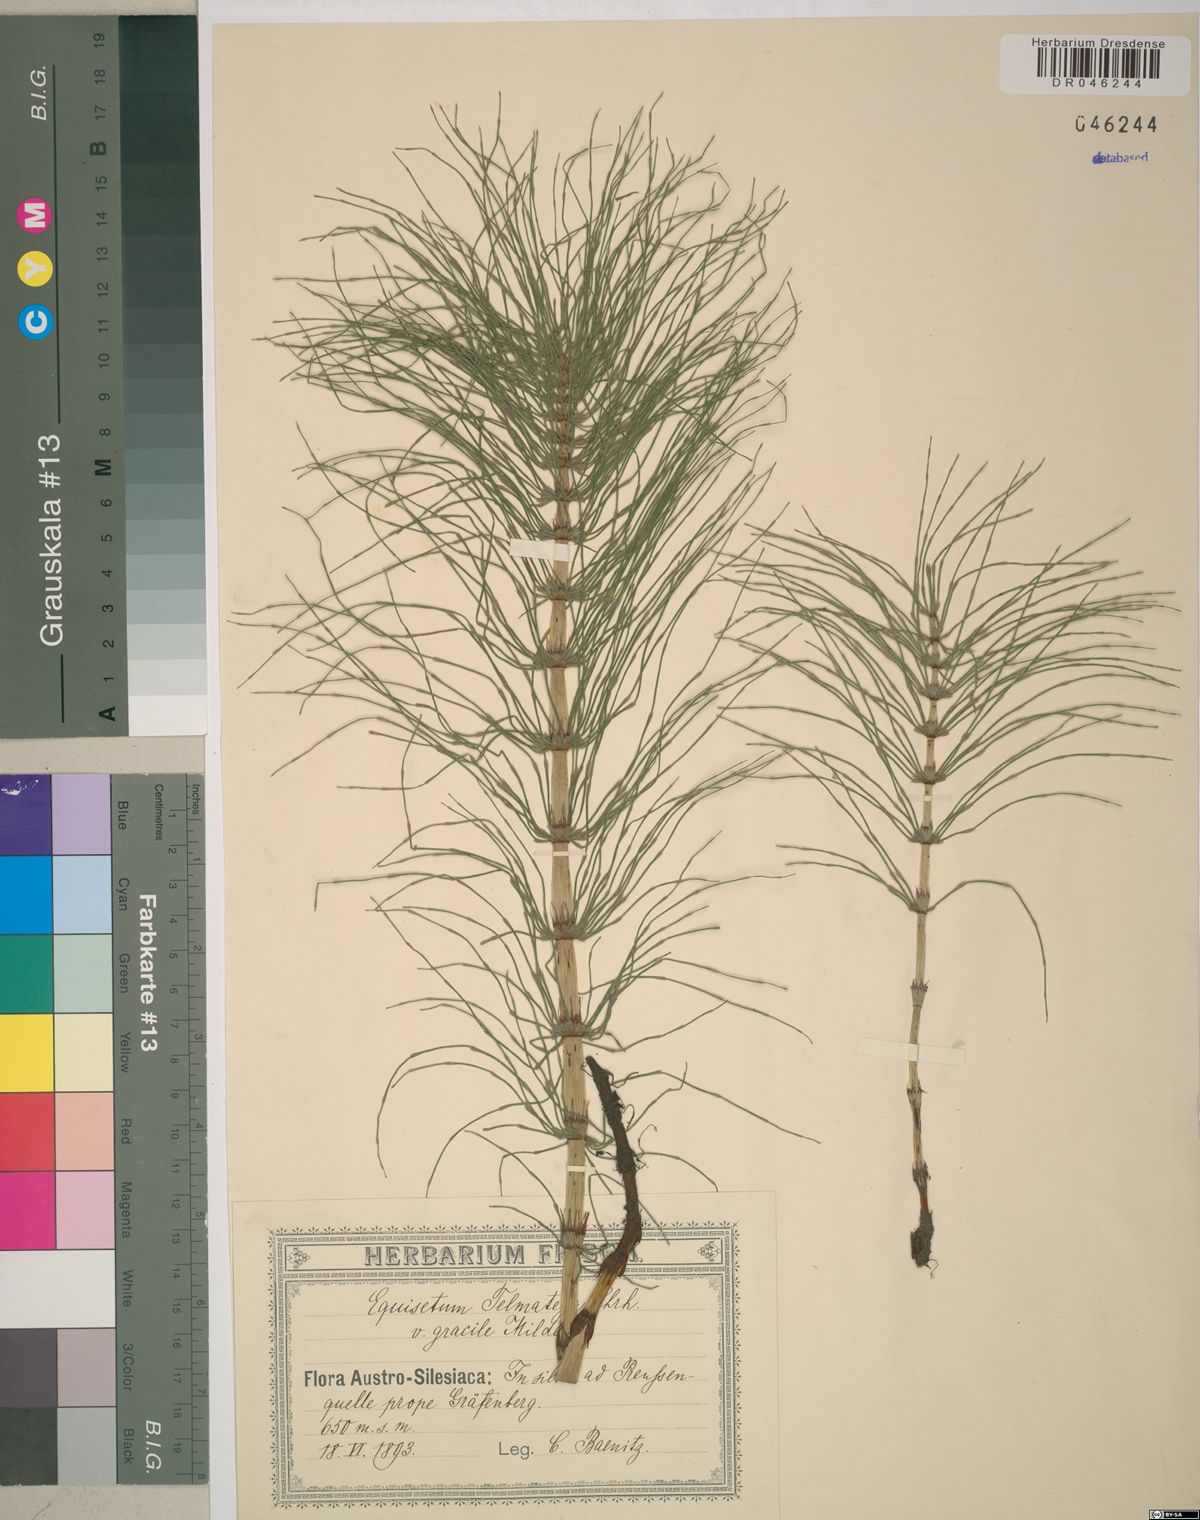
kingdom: Plantae
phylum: Tracheophyta
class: Polypodiopsida
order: Equisetales
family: Equisetaceae
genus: Equisetum
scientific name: Equisetum telmateia
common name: Great horsetail
